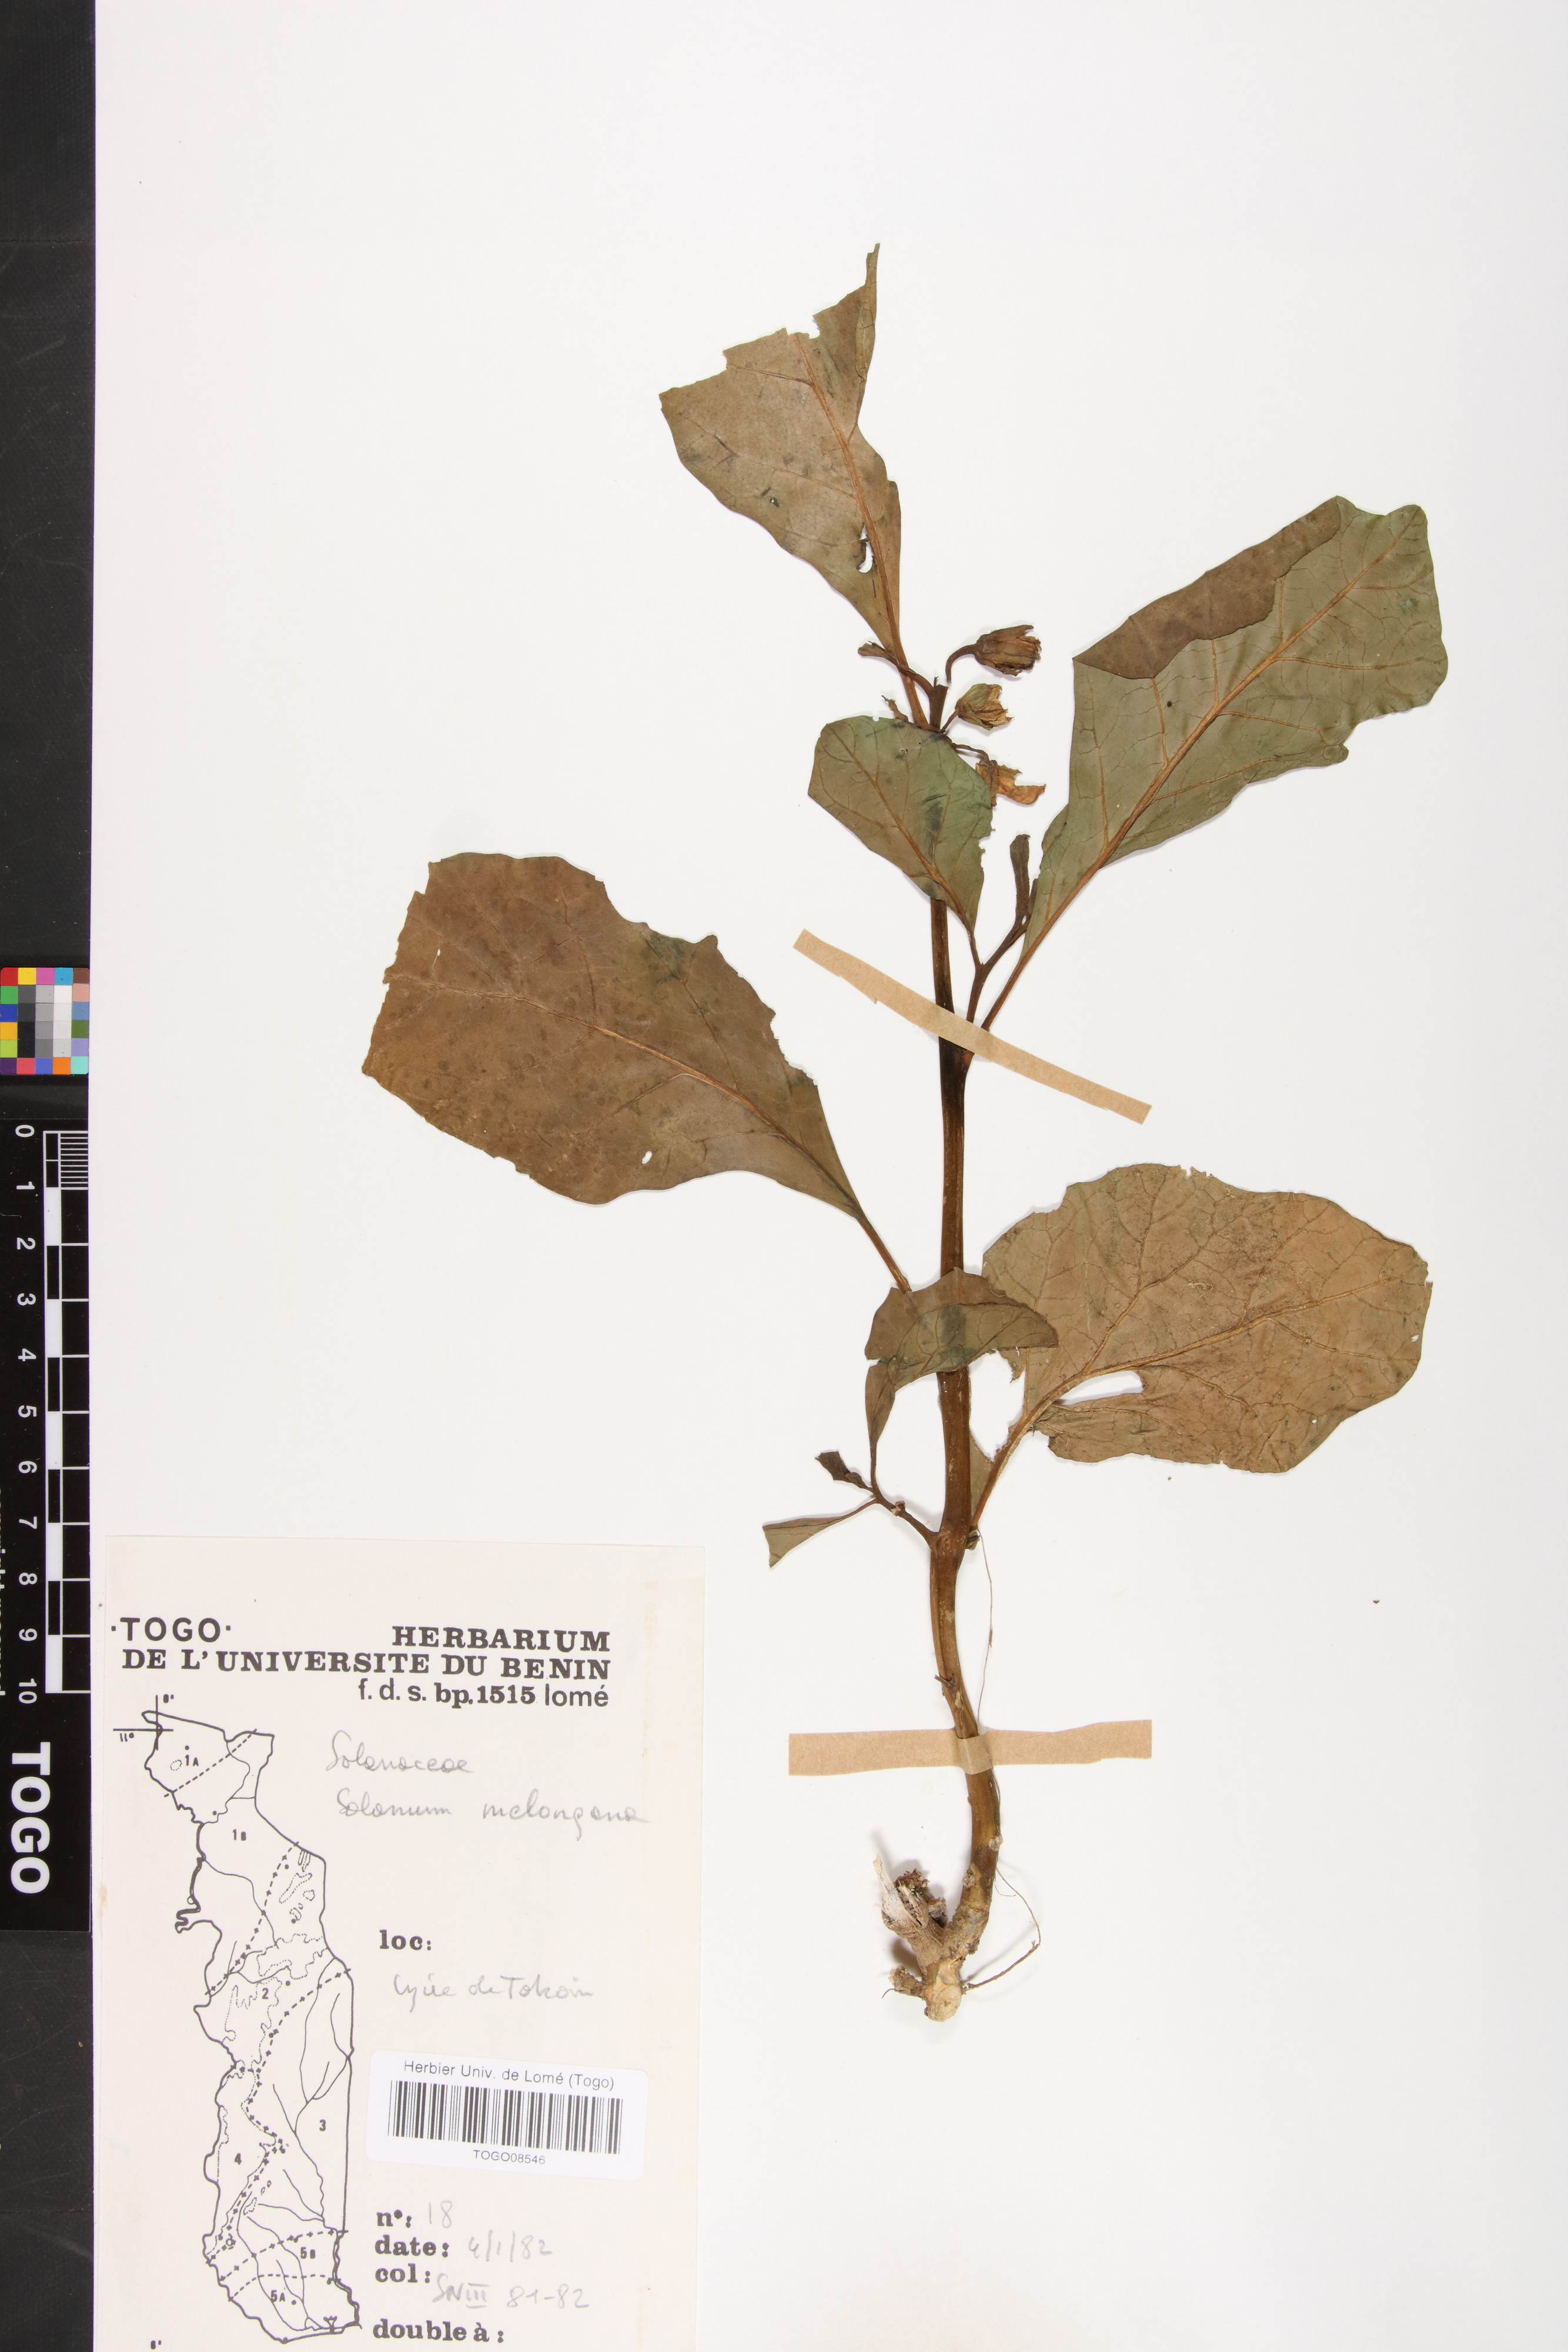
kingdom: Plantae
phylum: Tracheophyta
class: Magnoliopsida
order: Solanales
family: Solanaceae
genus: Solanum
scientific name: Solanum melongena
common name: Eggplant
